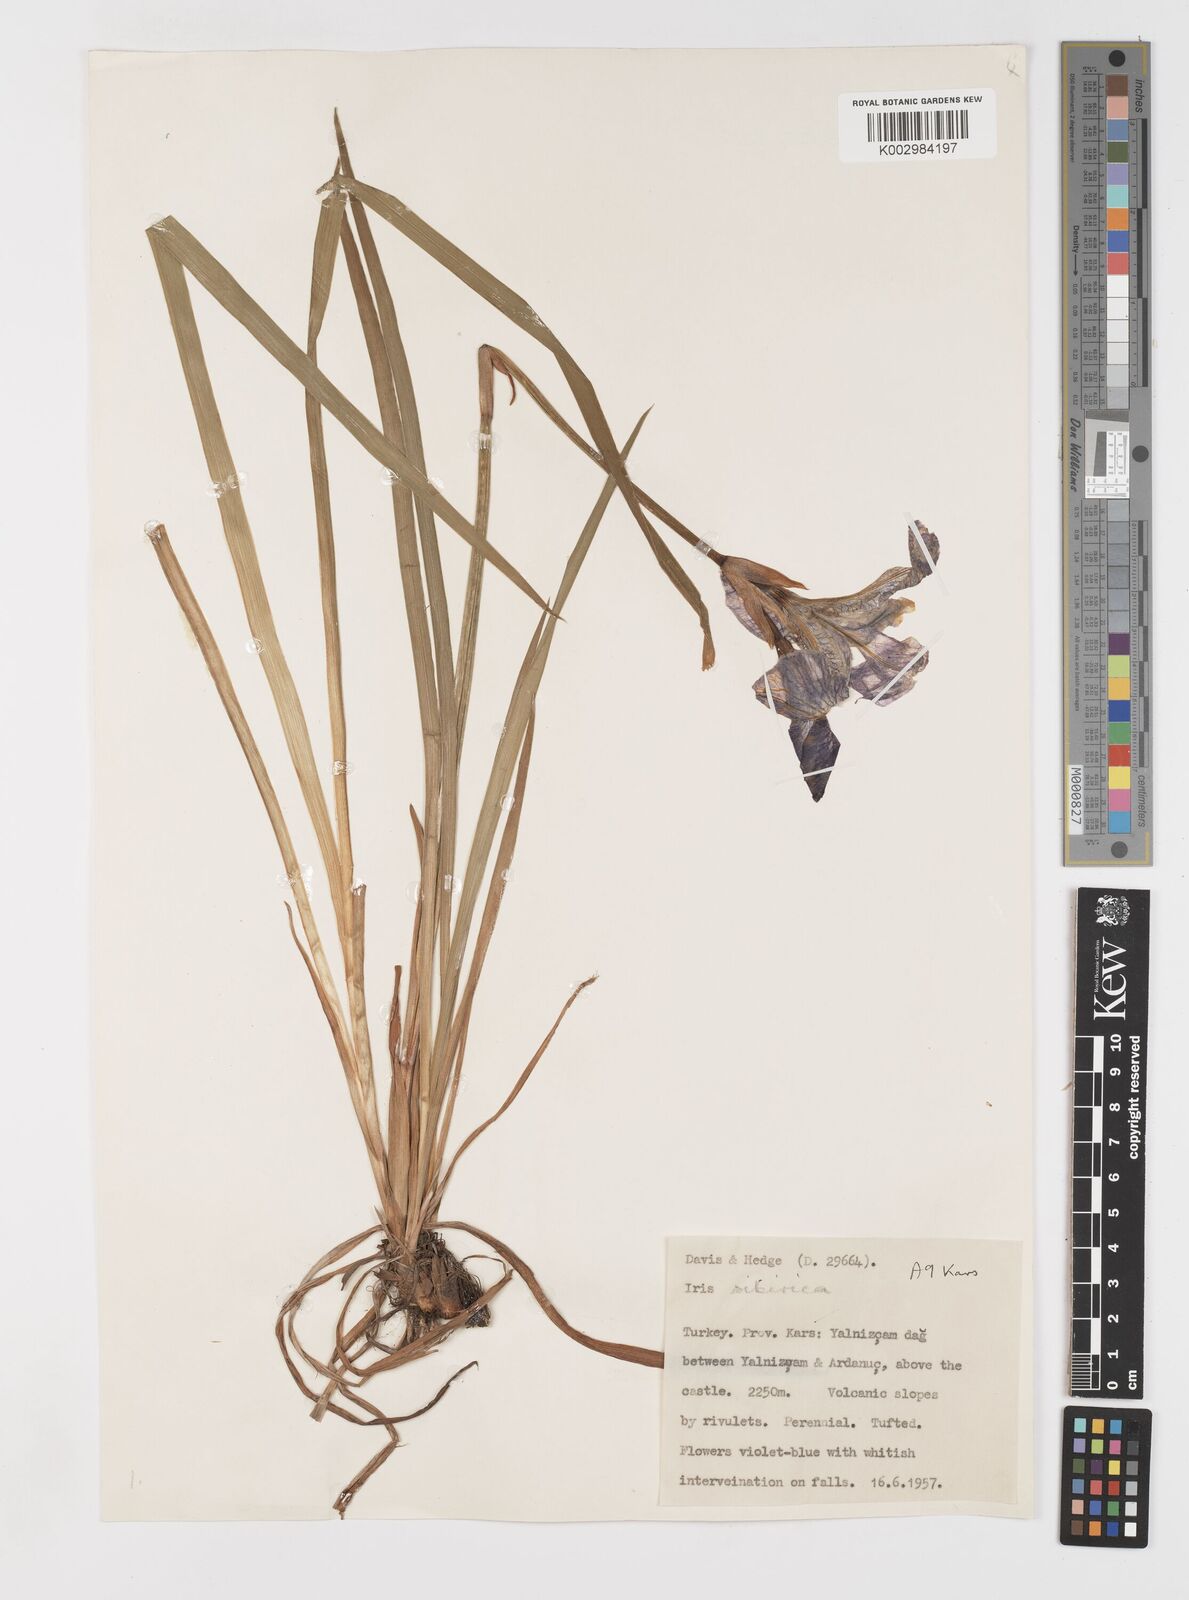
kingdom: Plantae
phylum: Tracheophyta
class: Liliopsida
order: Asparagales
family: Iridaceae
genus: Iris
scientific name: Iris sibirica
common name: Siberian iris
